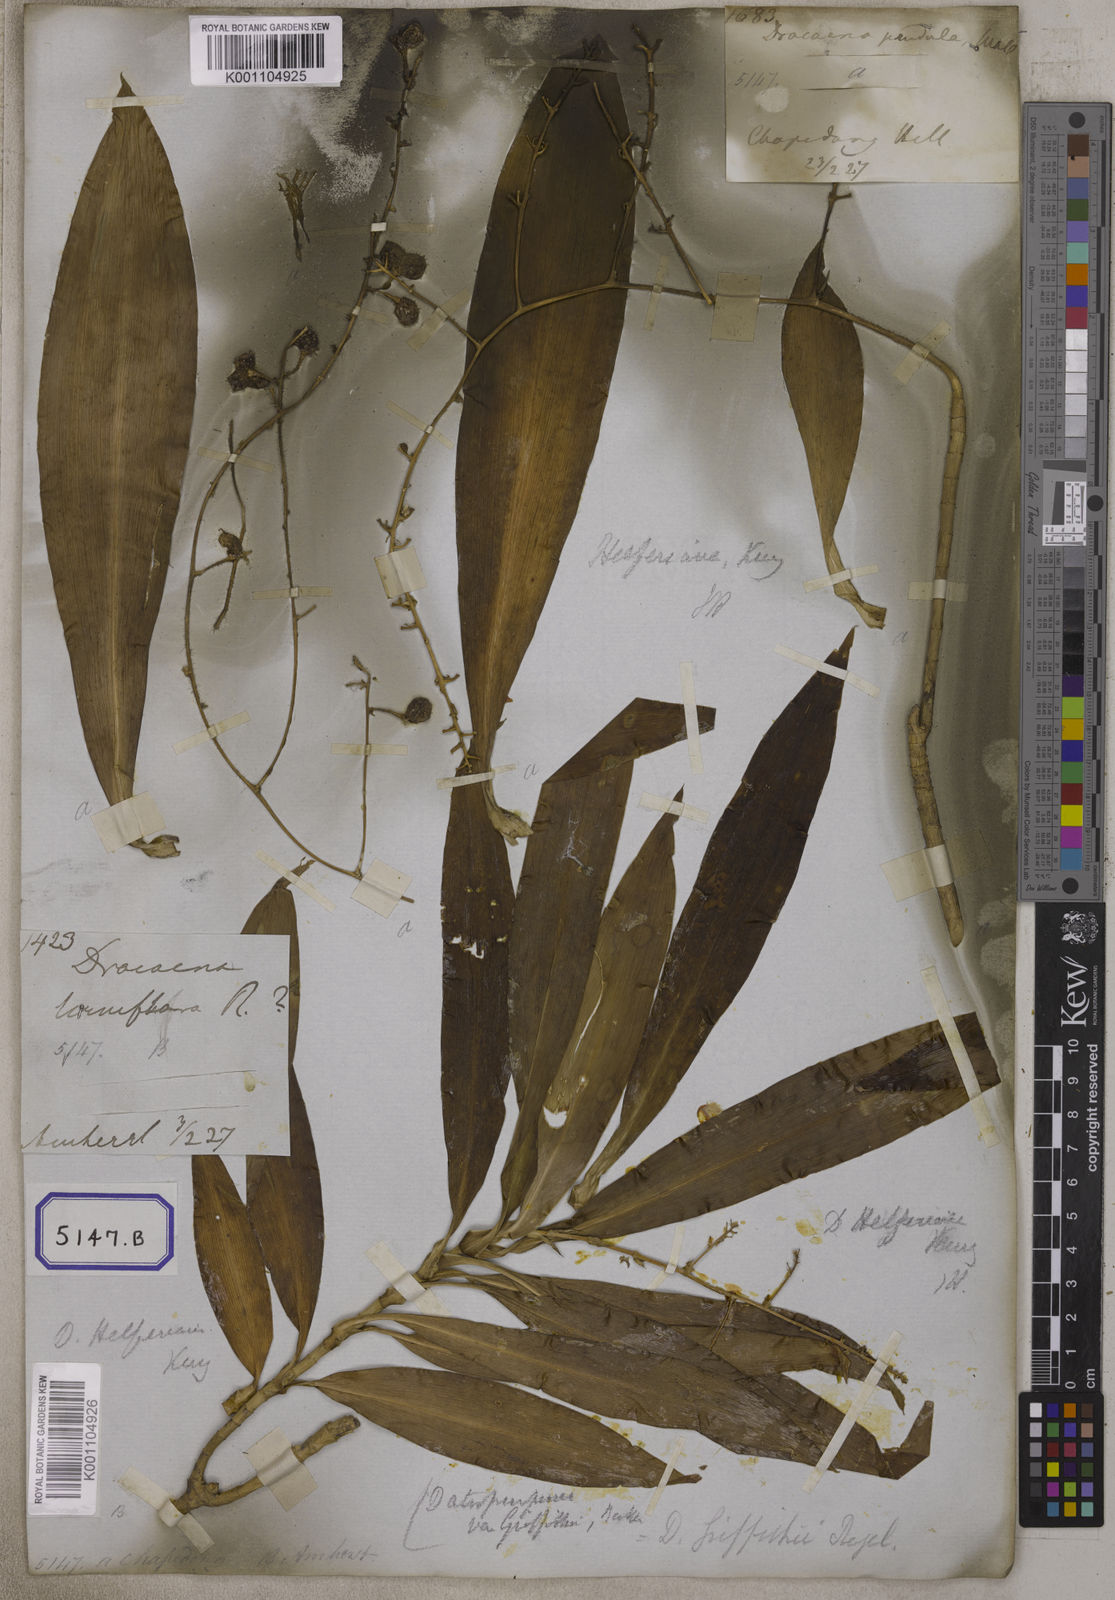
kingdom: Plantae
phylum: Tracheophyta
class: Liliopsida
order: Asparagales
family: Asparagaceae
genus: Dracaena
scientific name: Dracaena elliptica
